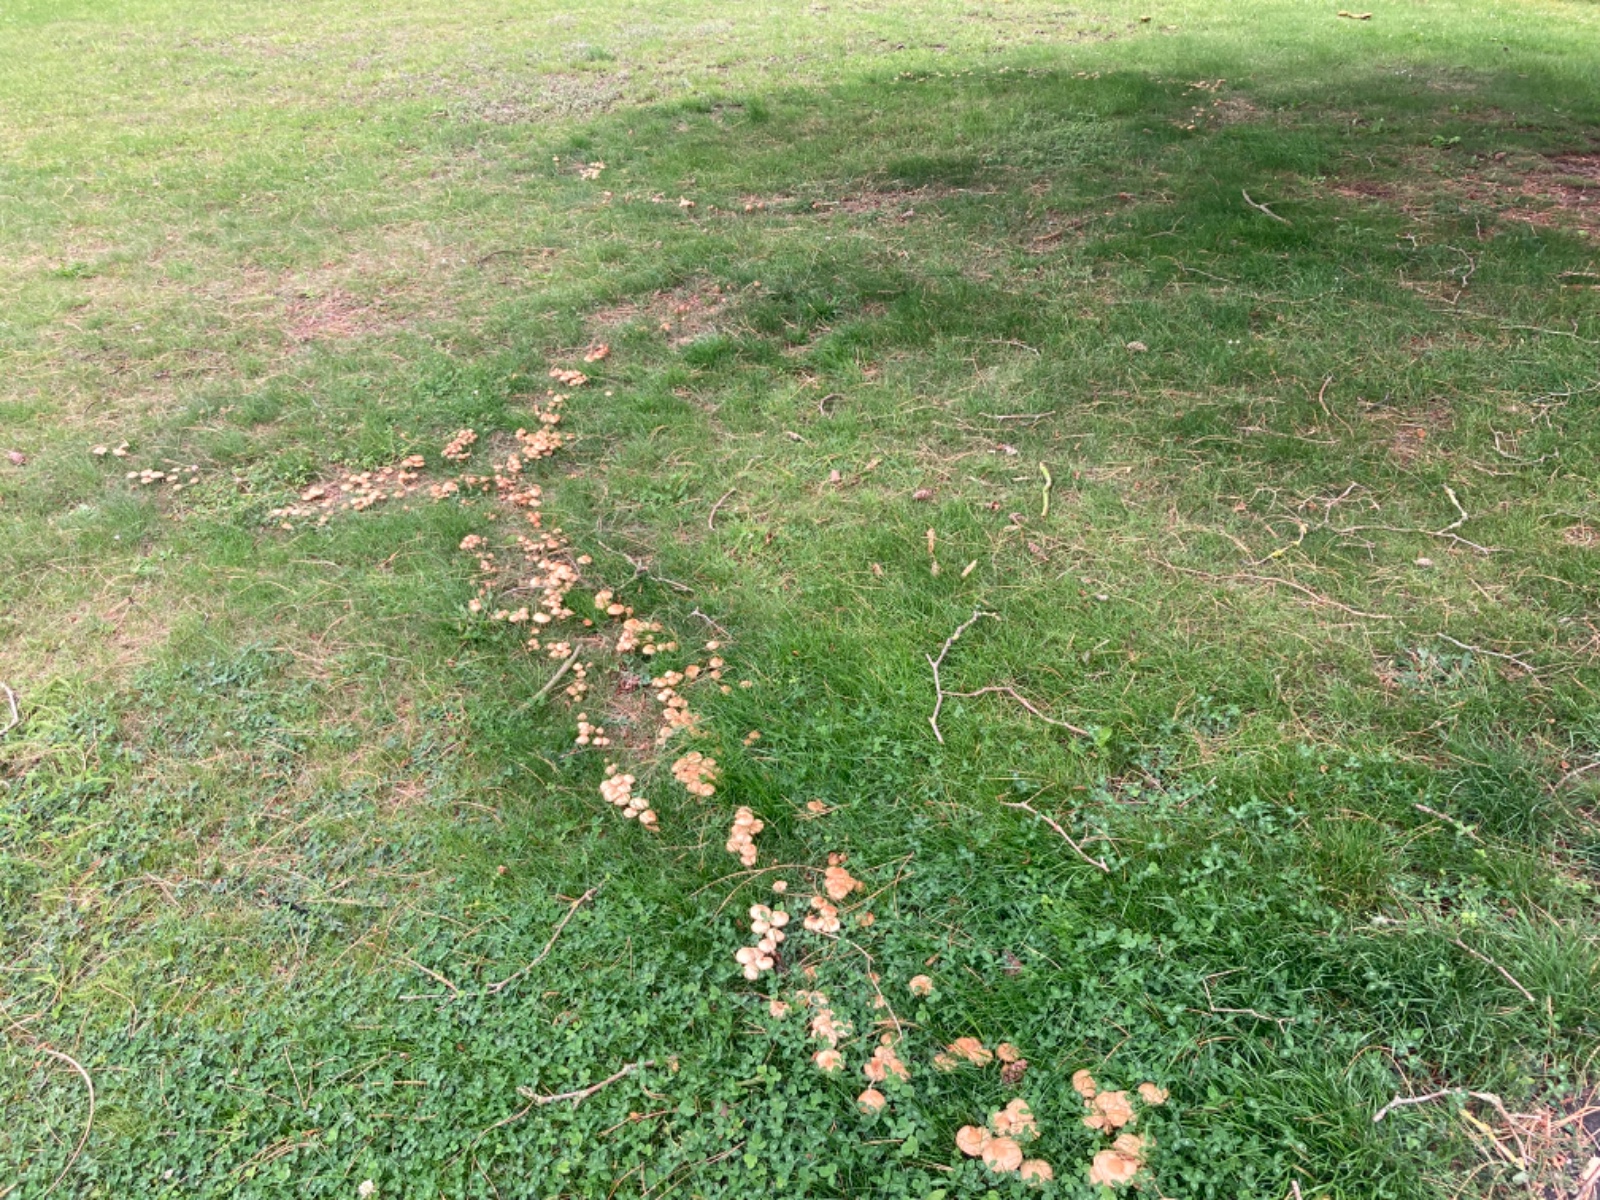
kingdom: Fungi
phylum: Basidiomycota
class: Agaricomycetes
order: Agaricales
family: Marasmiaceae
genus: Marasmius
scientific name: Marasmius oreades
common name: elledans-bruskhat
